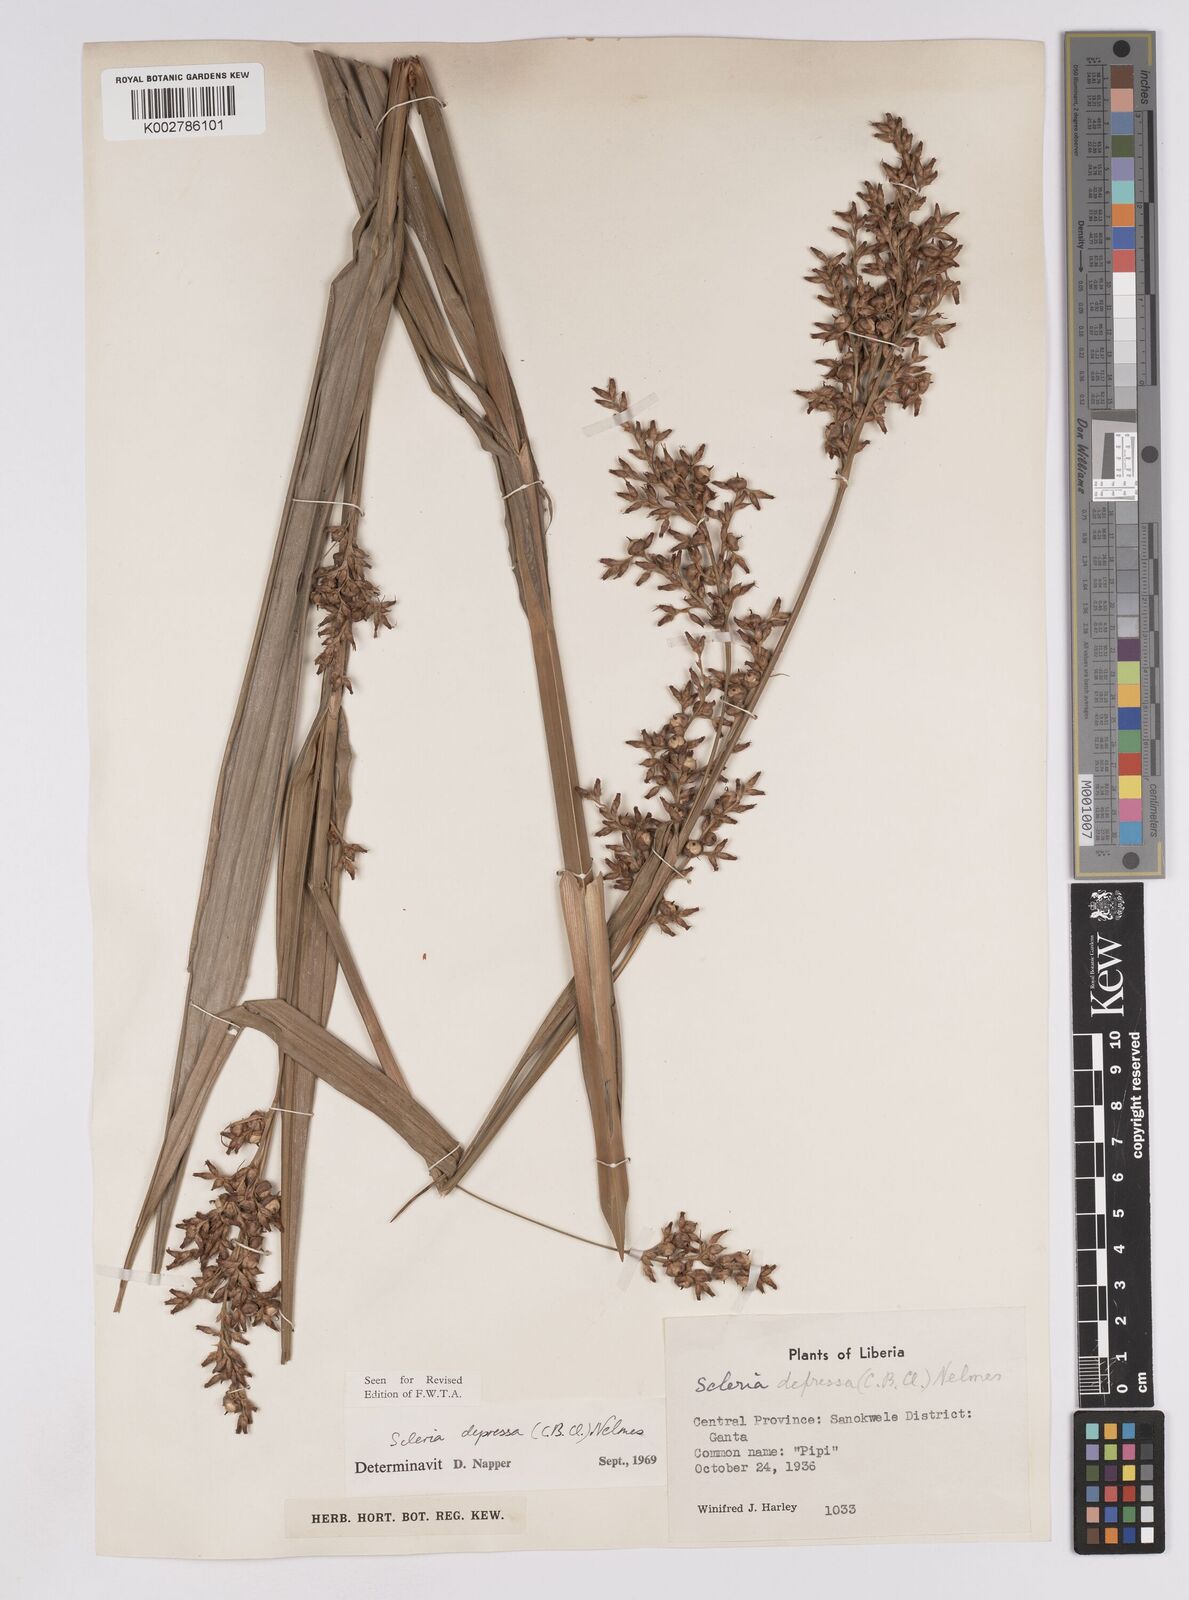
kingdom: Plantae
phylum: Tracheophyta
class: Liliopsida
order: Poales
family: Cyperaceae
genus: Scleria
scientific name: Scleria depressa
